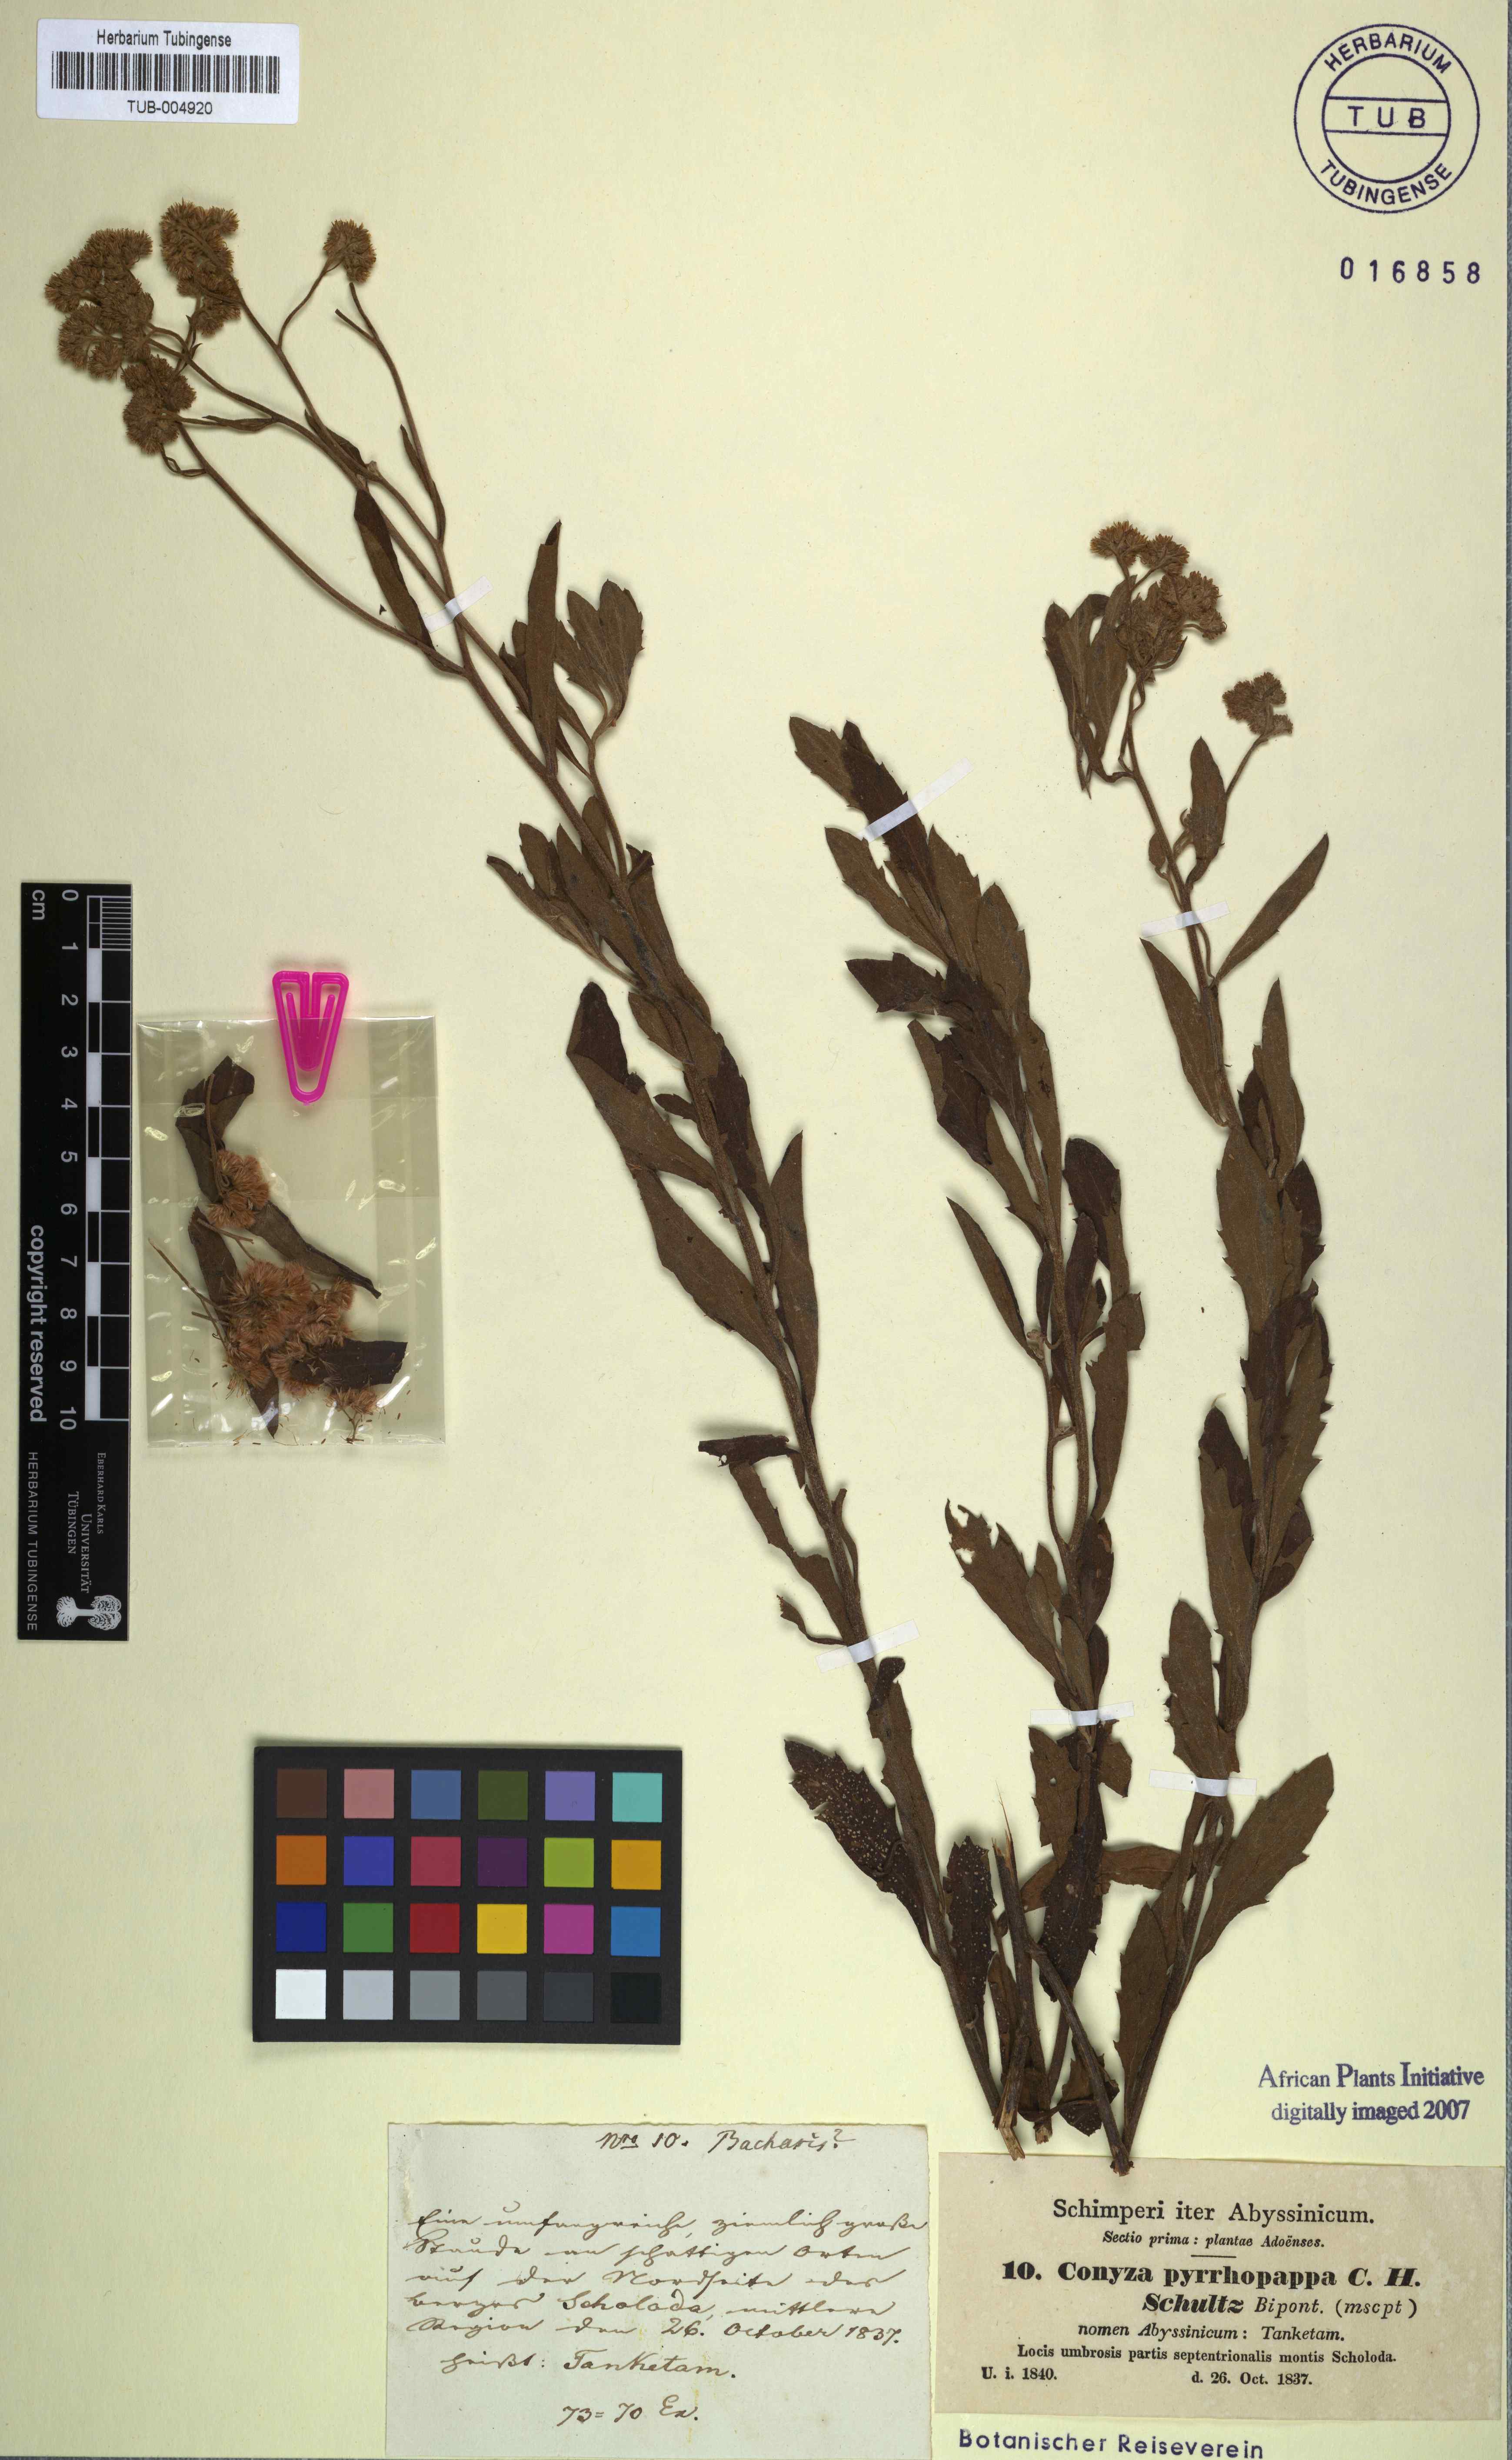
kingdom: Plantae
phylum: Tracheophyta
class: Magnoliopsida
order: Asterales
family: Asteraceae
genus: Microglossa
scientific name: Microglossa pyrrhopappa
